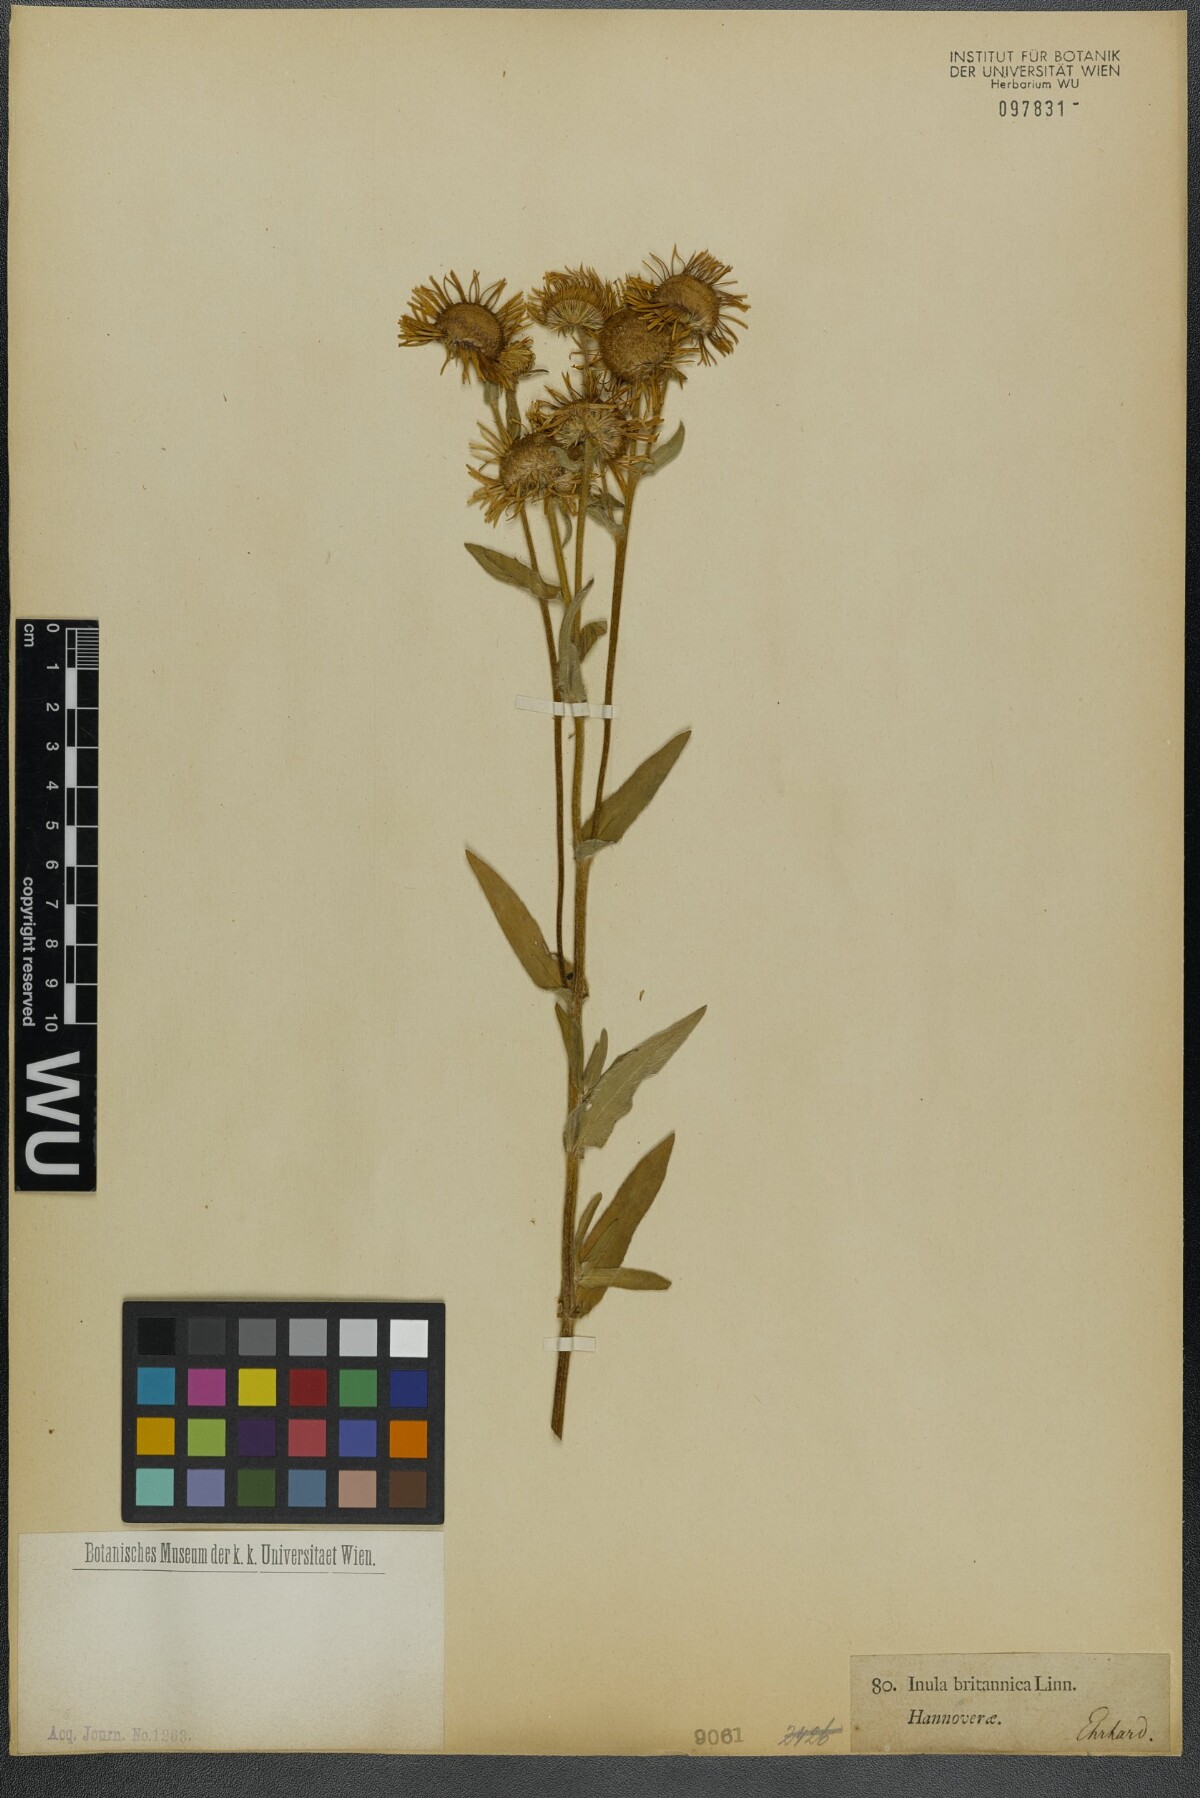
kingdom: Plantae
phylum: Tracheophyta
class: Magnoliopsida
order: Asterales
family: Asteraceae
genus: Pentanema
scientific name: Pentanema britannicum
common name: British elecampane
